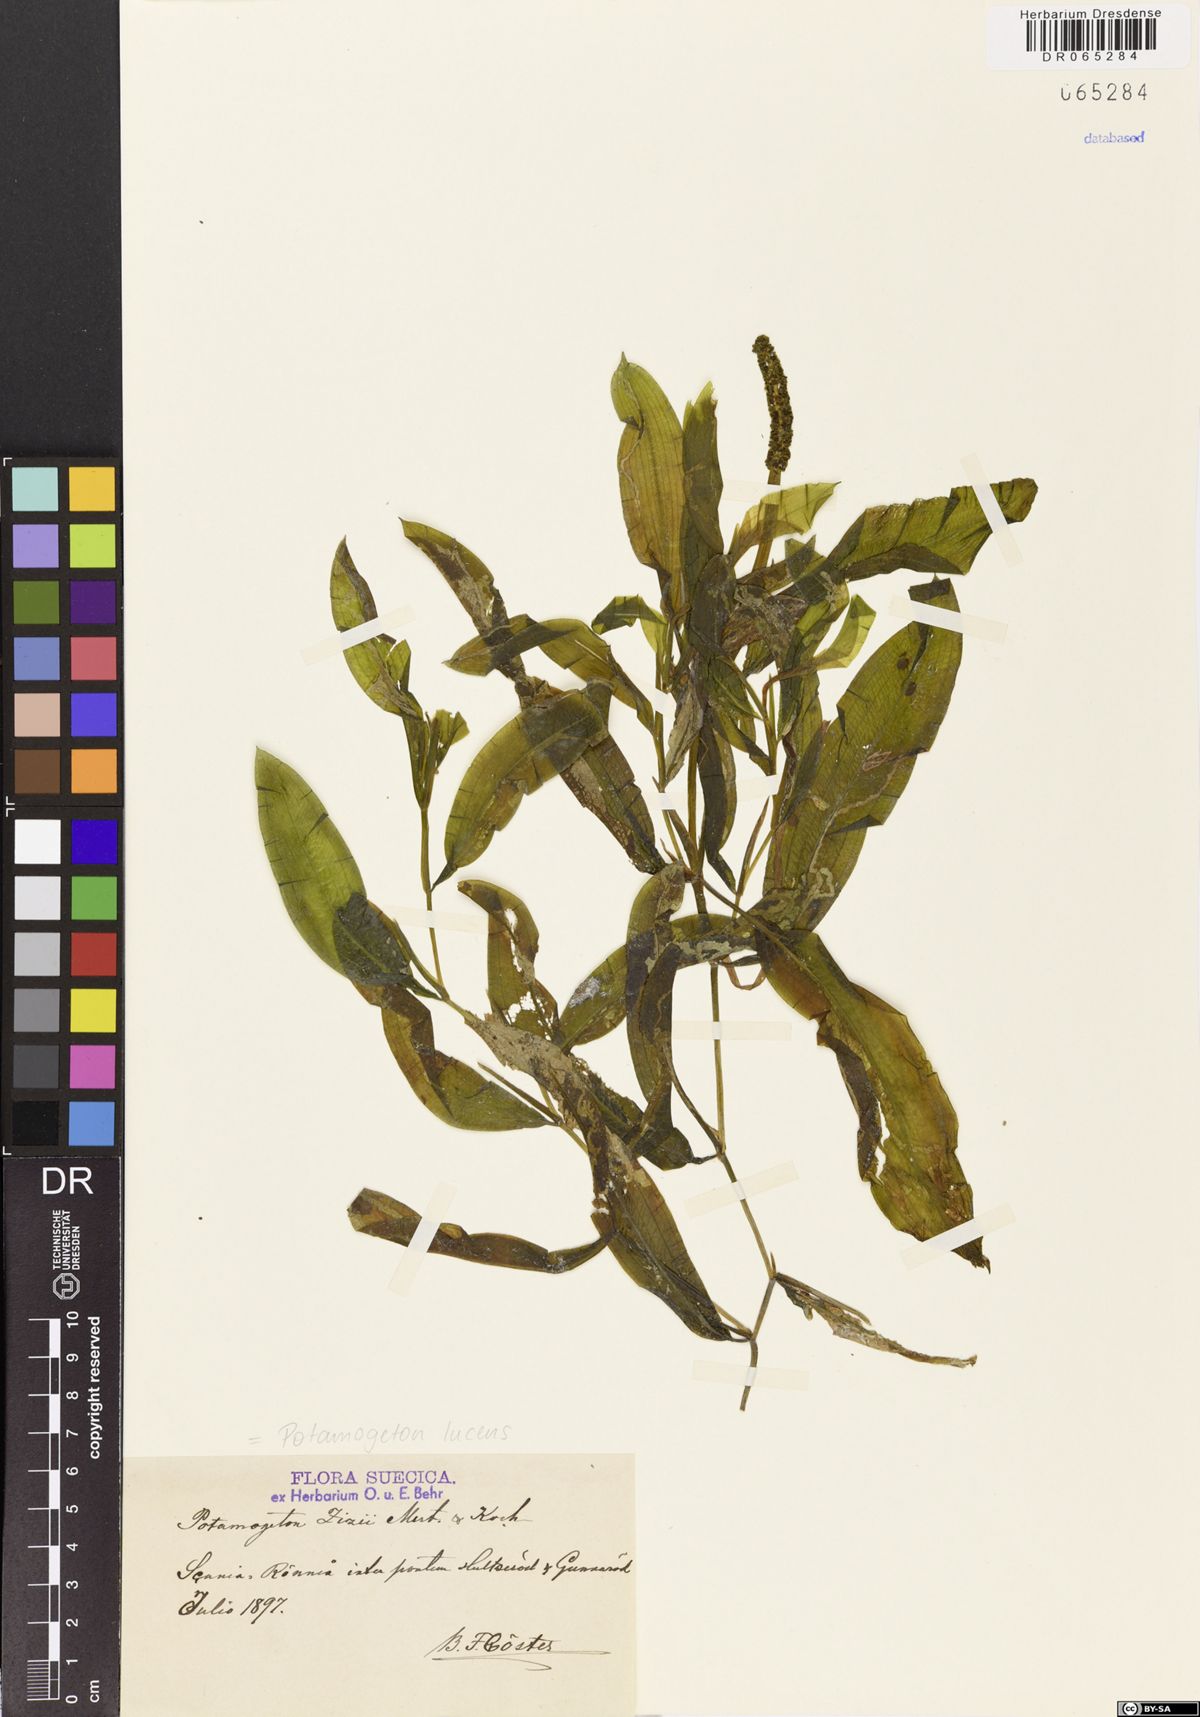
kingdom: Plantae
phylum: Tracheophyta
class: Liliopsida
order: Alismatales
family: Potamogetonaceae
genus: Potamogeton
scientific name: Potamogeton lucens
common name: Shining pondweed
